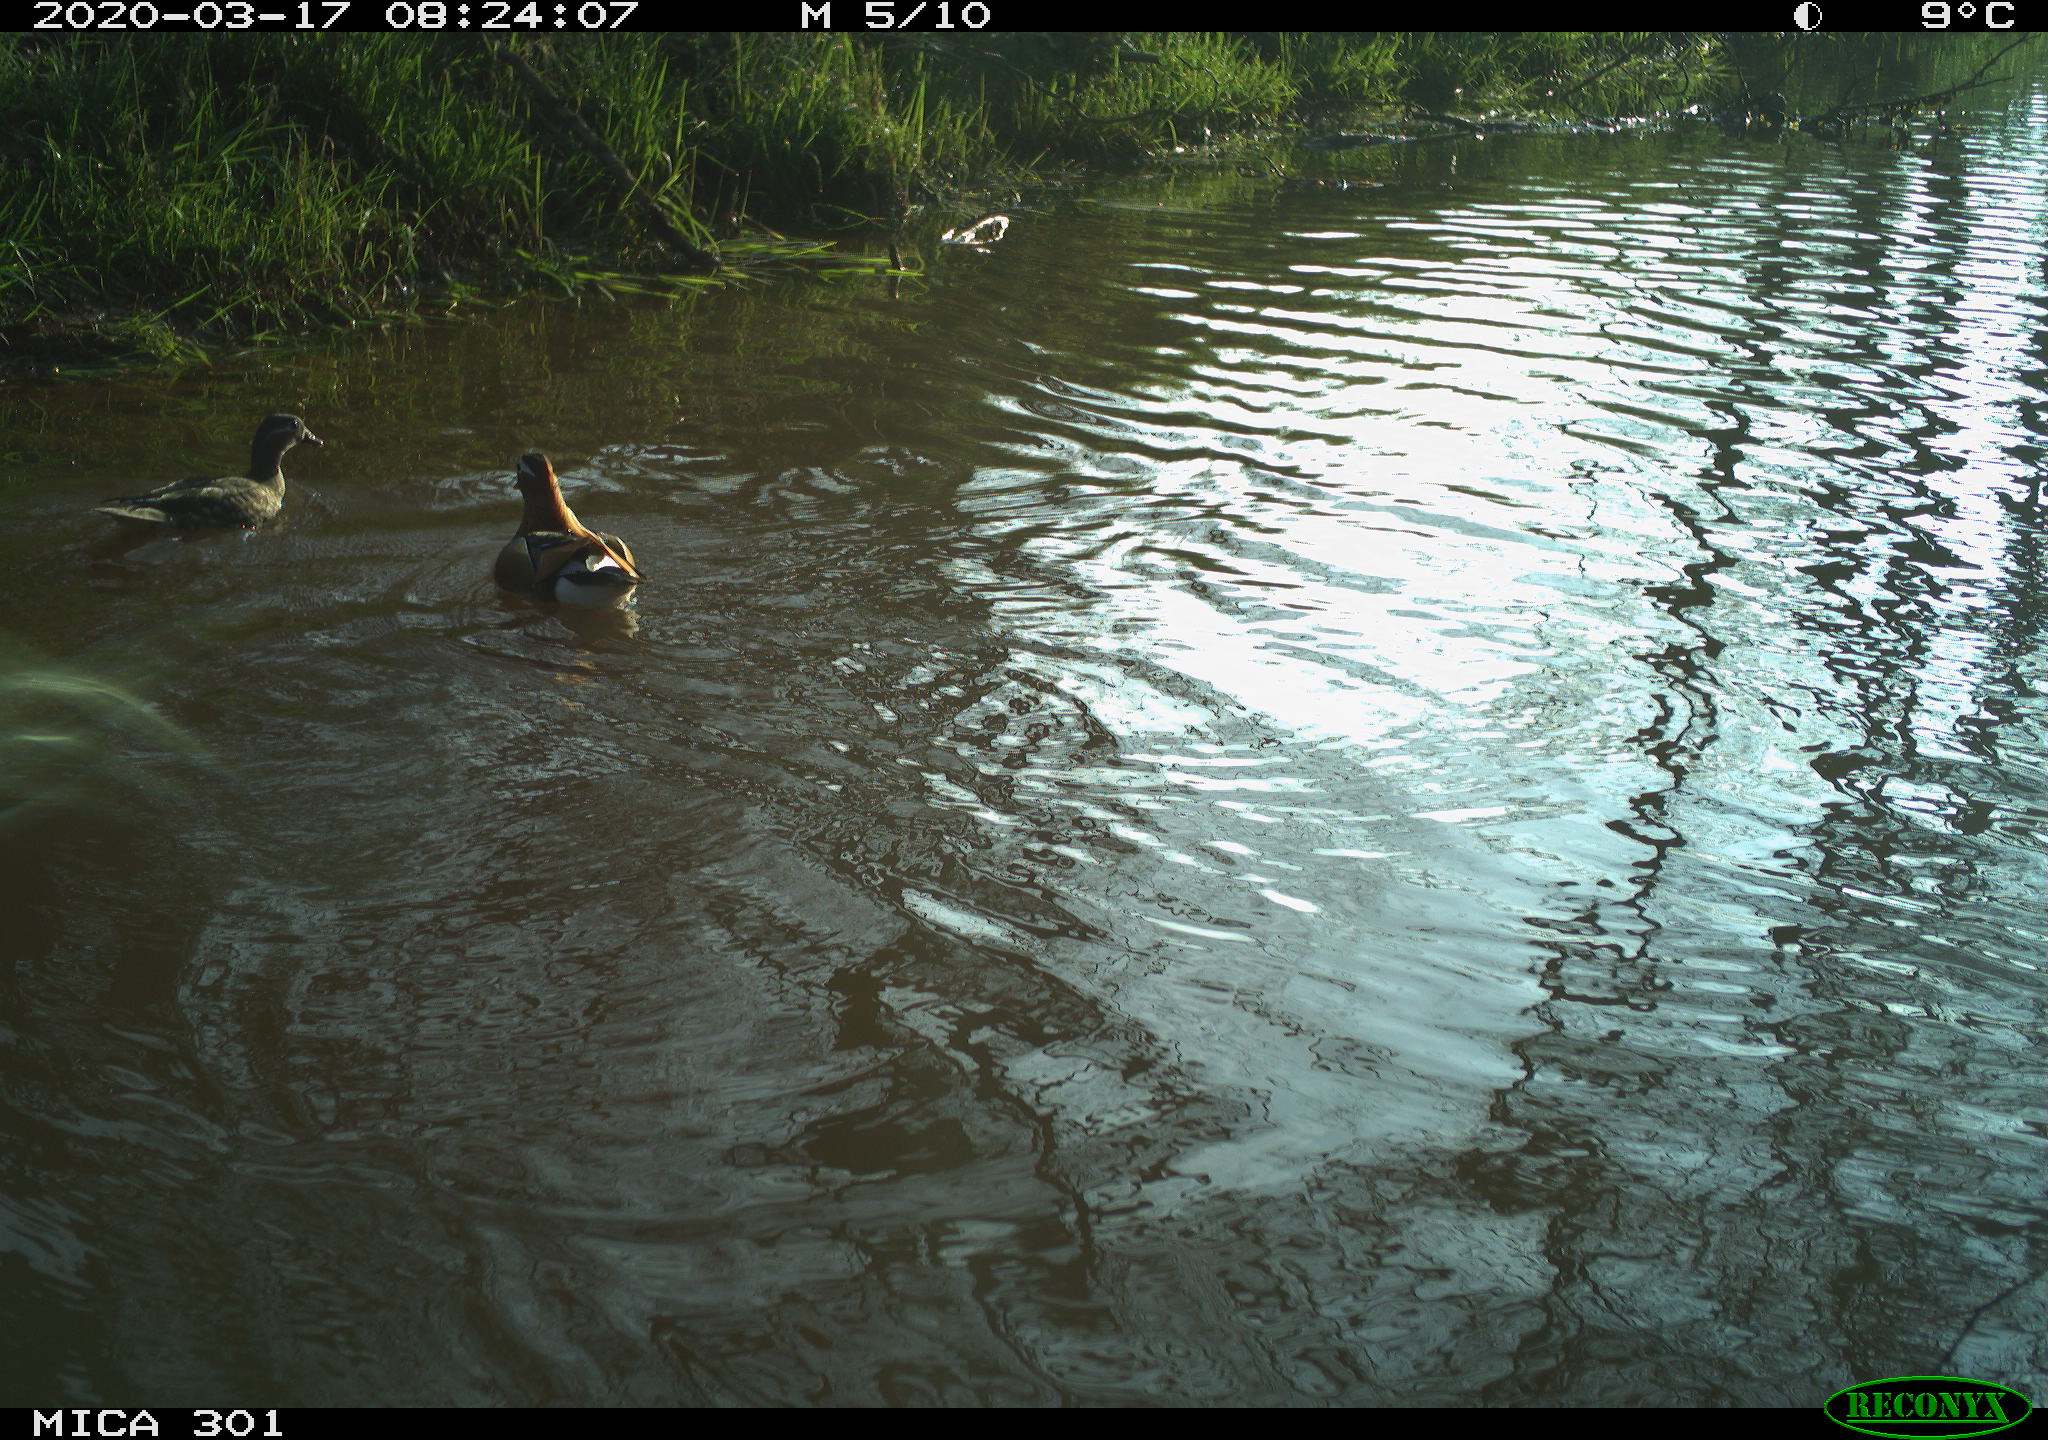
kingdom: Animalia
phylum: Chordata
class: Aves
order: Anseriformes
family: Anatidae
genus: Aix
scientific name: Aix galericulata
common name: Mandarin duck
